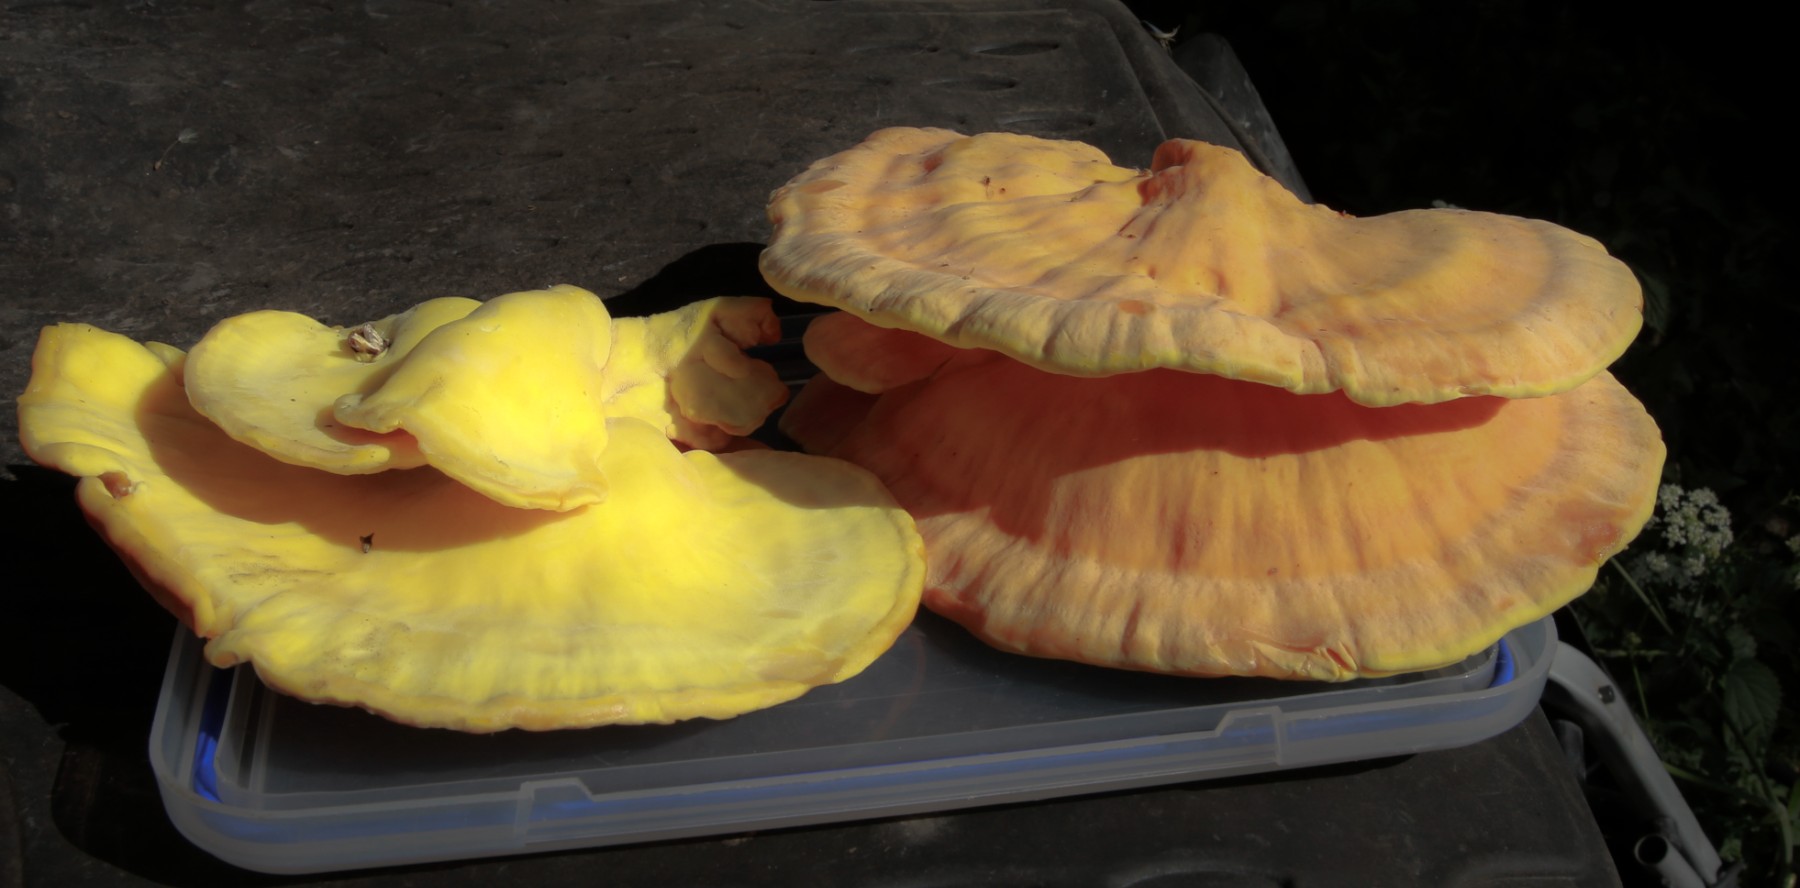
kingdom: Fungi
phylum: Basidiomycota
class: Agaricomycetes
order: Polyporales
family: Laetiporaceae
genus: Laetiporus
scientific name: Laetiporus sulphureus
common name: svovlporesvamp
